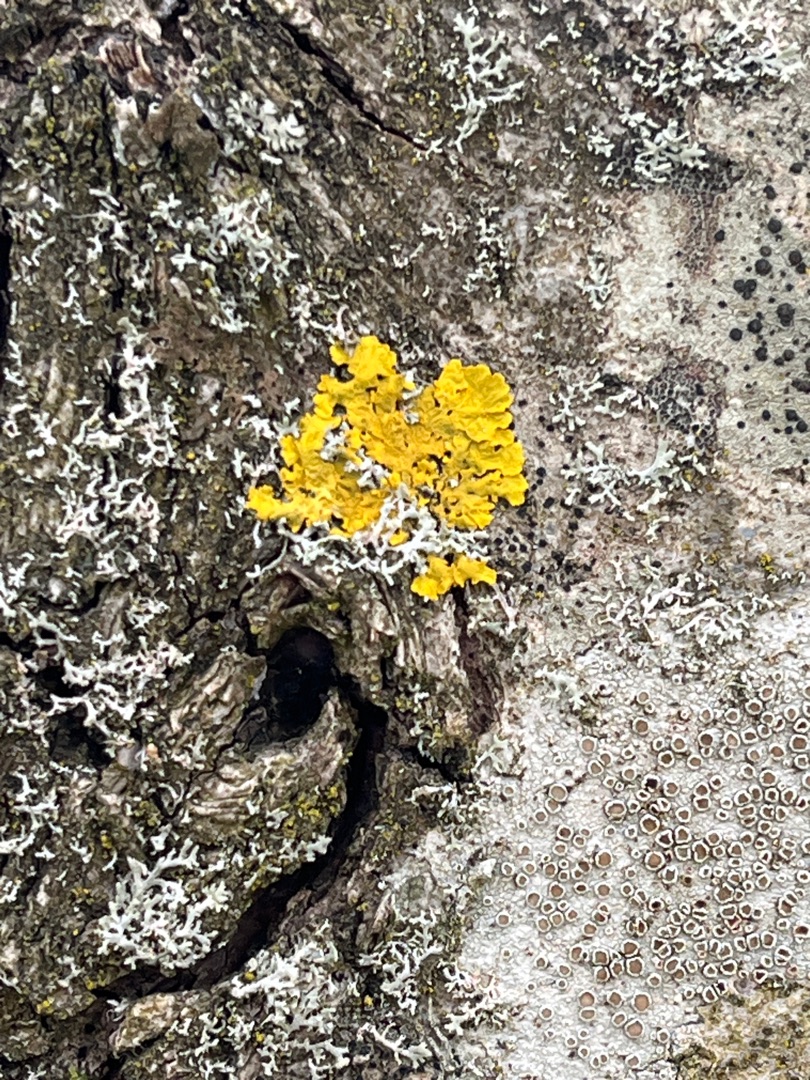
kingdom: Fungi
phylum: Ascomycota
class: Lecanoromycetes
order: Teloschistales
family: Teloschistaceae
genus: Xanthoria
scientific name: Xanthoria parietina
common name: Almindelig væggelav
